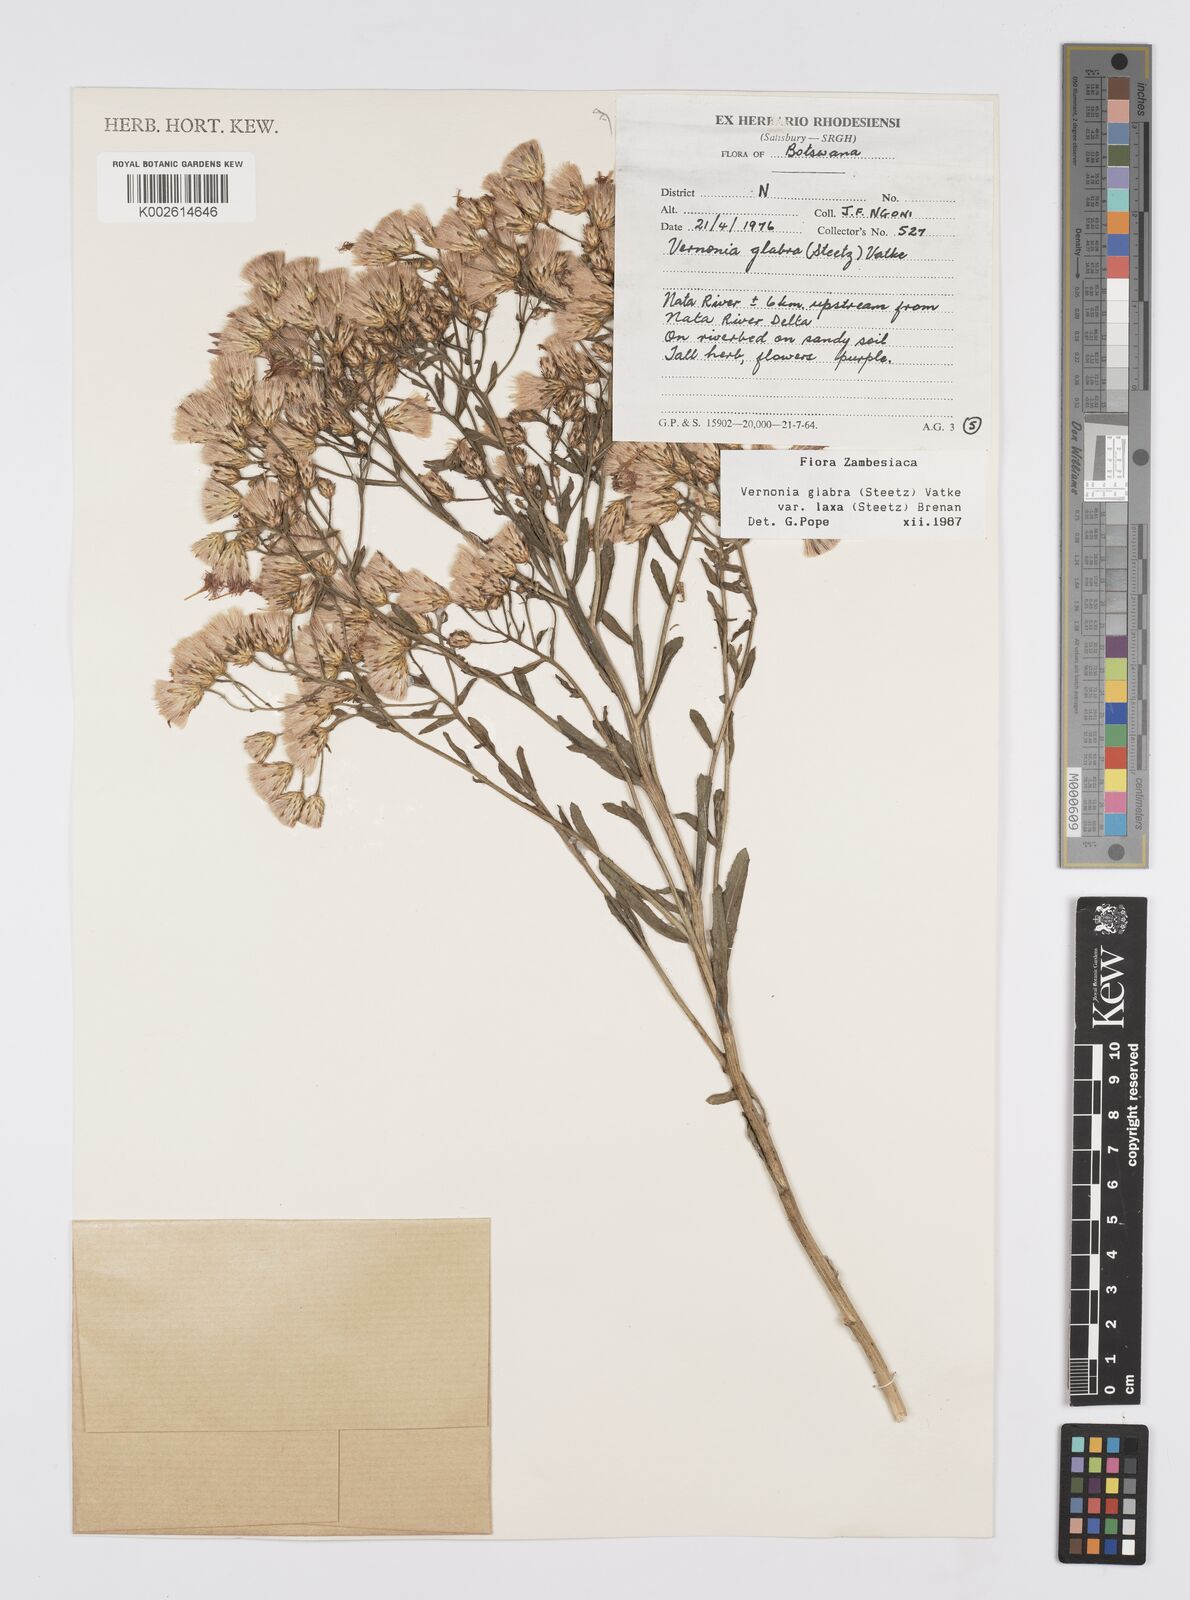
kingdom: Plantae
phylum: Tracheophyta
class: Magnoliopsida
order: Asterales
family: Asteraceae
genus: Linzia
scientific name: Linzia glabra
